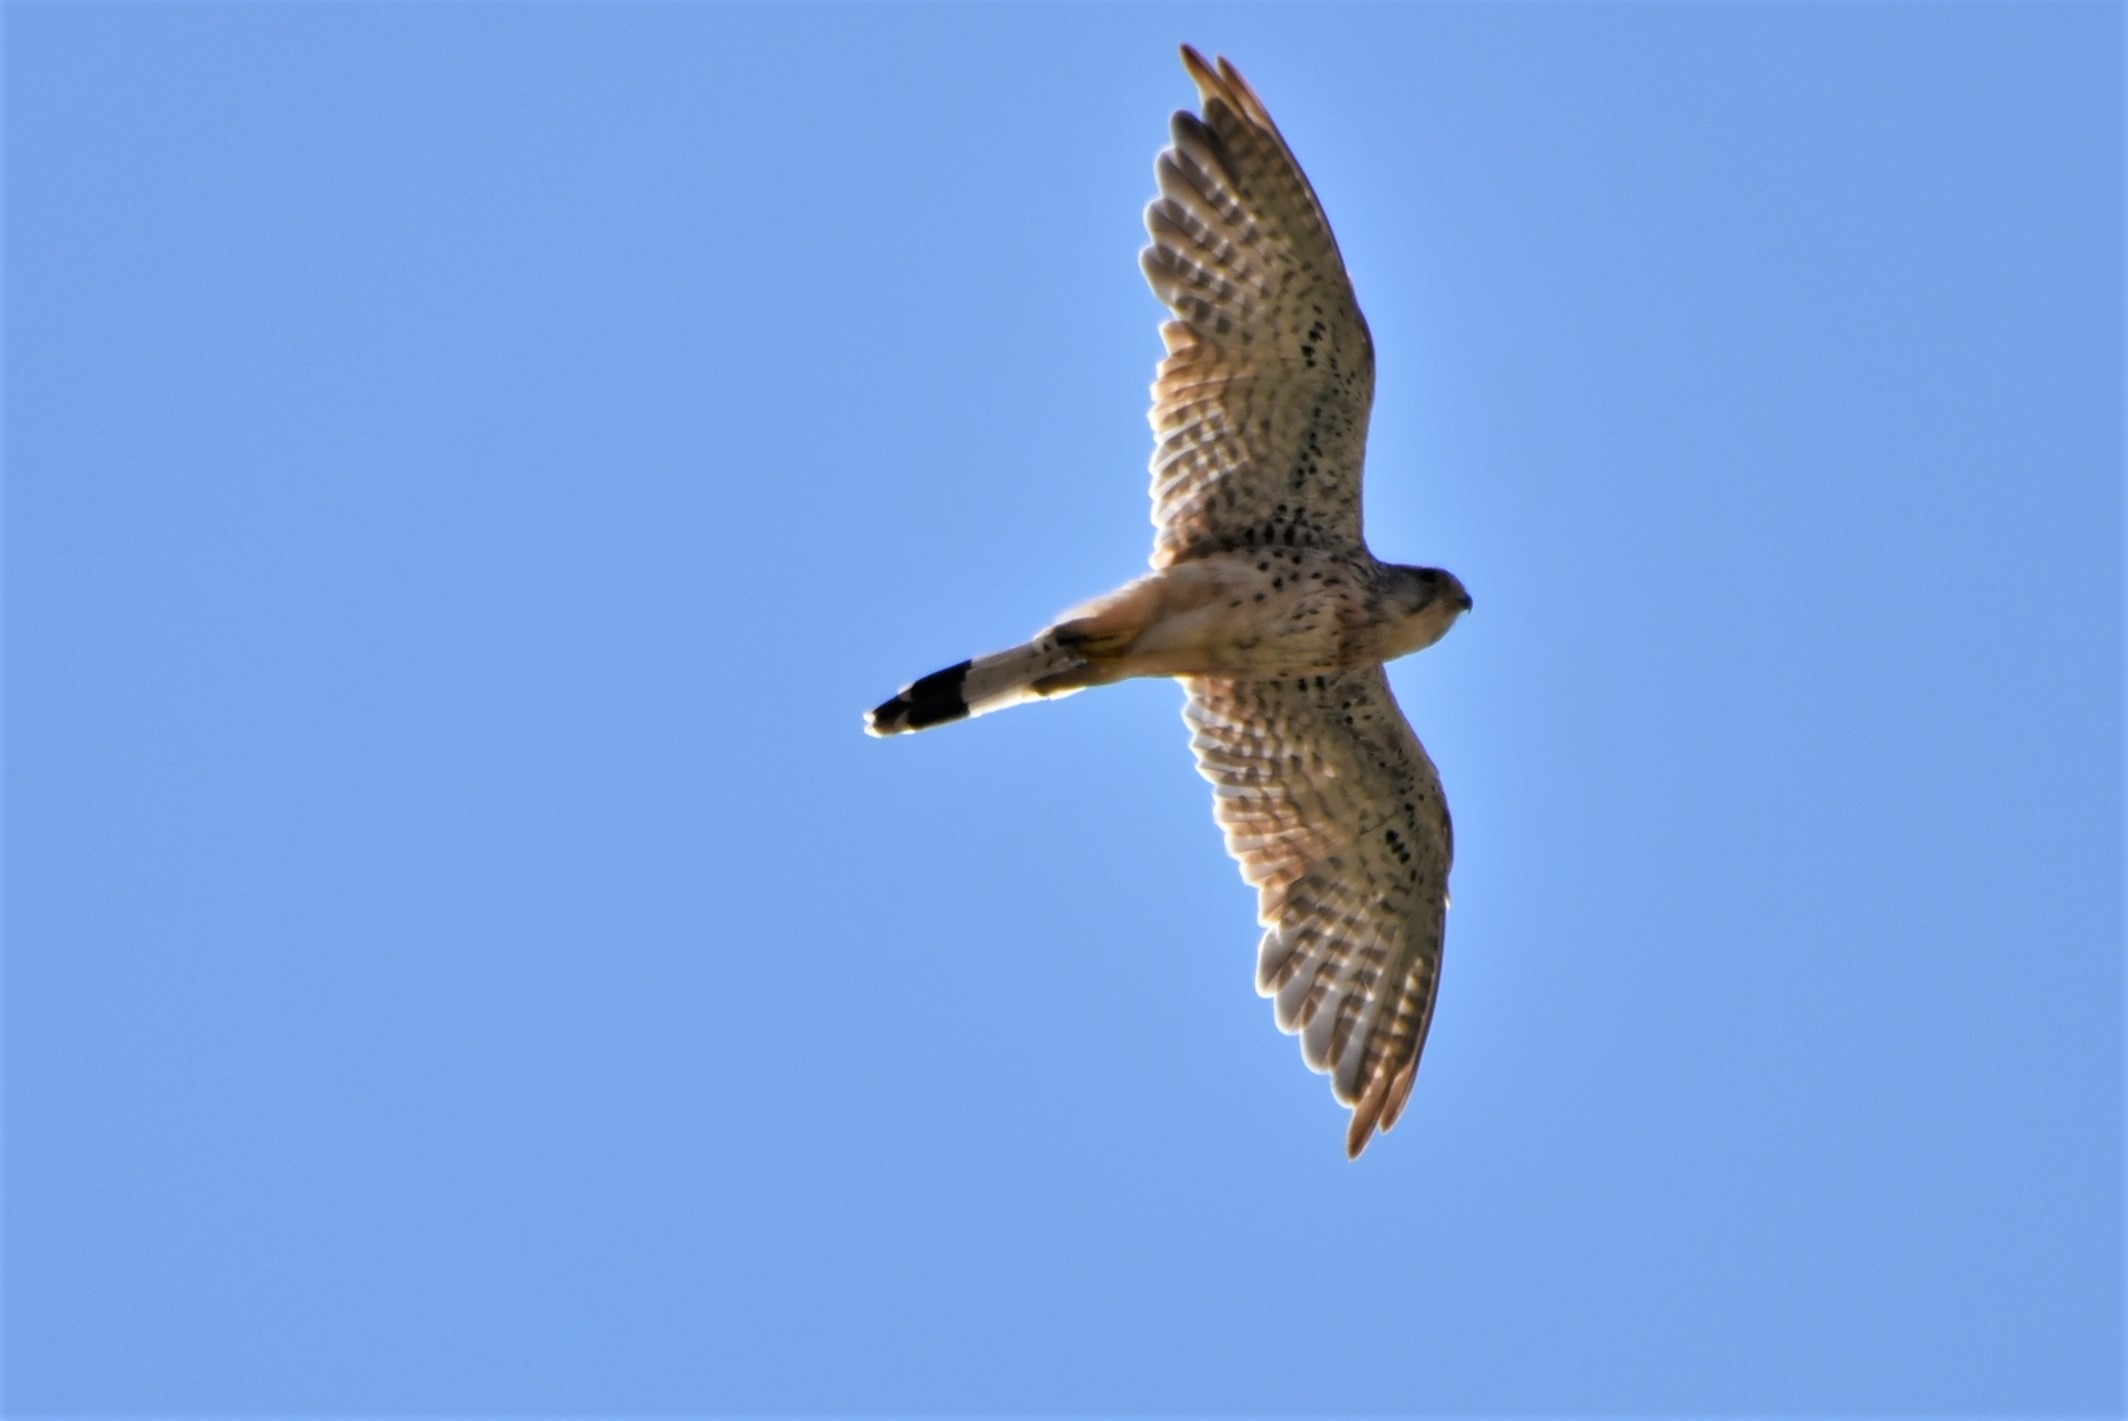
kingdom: Animalia
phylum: Chordata
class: Aves
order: Falconiformes
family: Falconidae
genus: Falco
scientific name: Falco tinnunculus
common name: Tårnfalk
